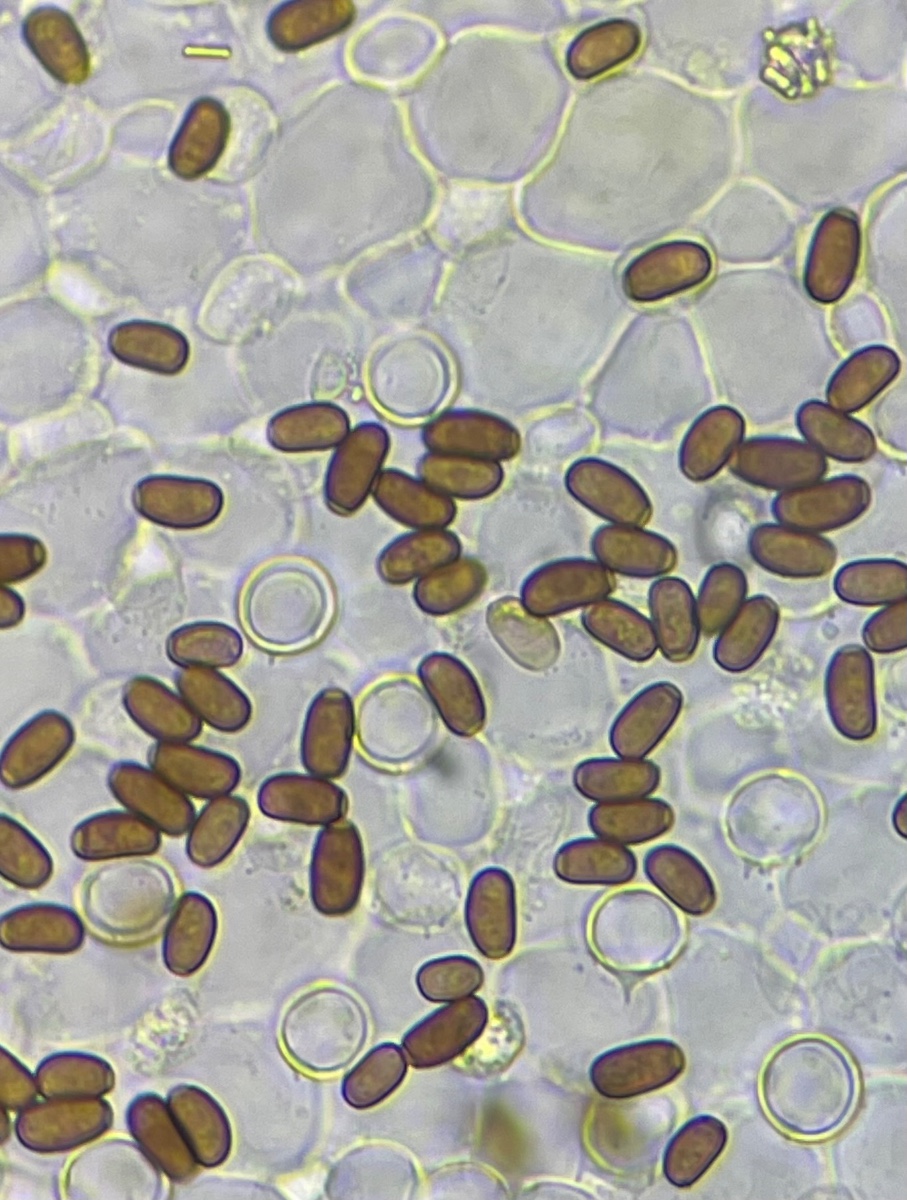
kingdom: Fungi
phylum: Basidiomycota
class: Agaricomycetes
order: Agaricales
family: Psathyrellaceae
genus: Coprinellus
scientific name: Coprinellus domesticus
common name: hus-blækhat
